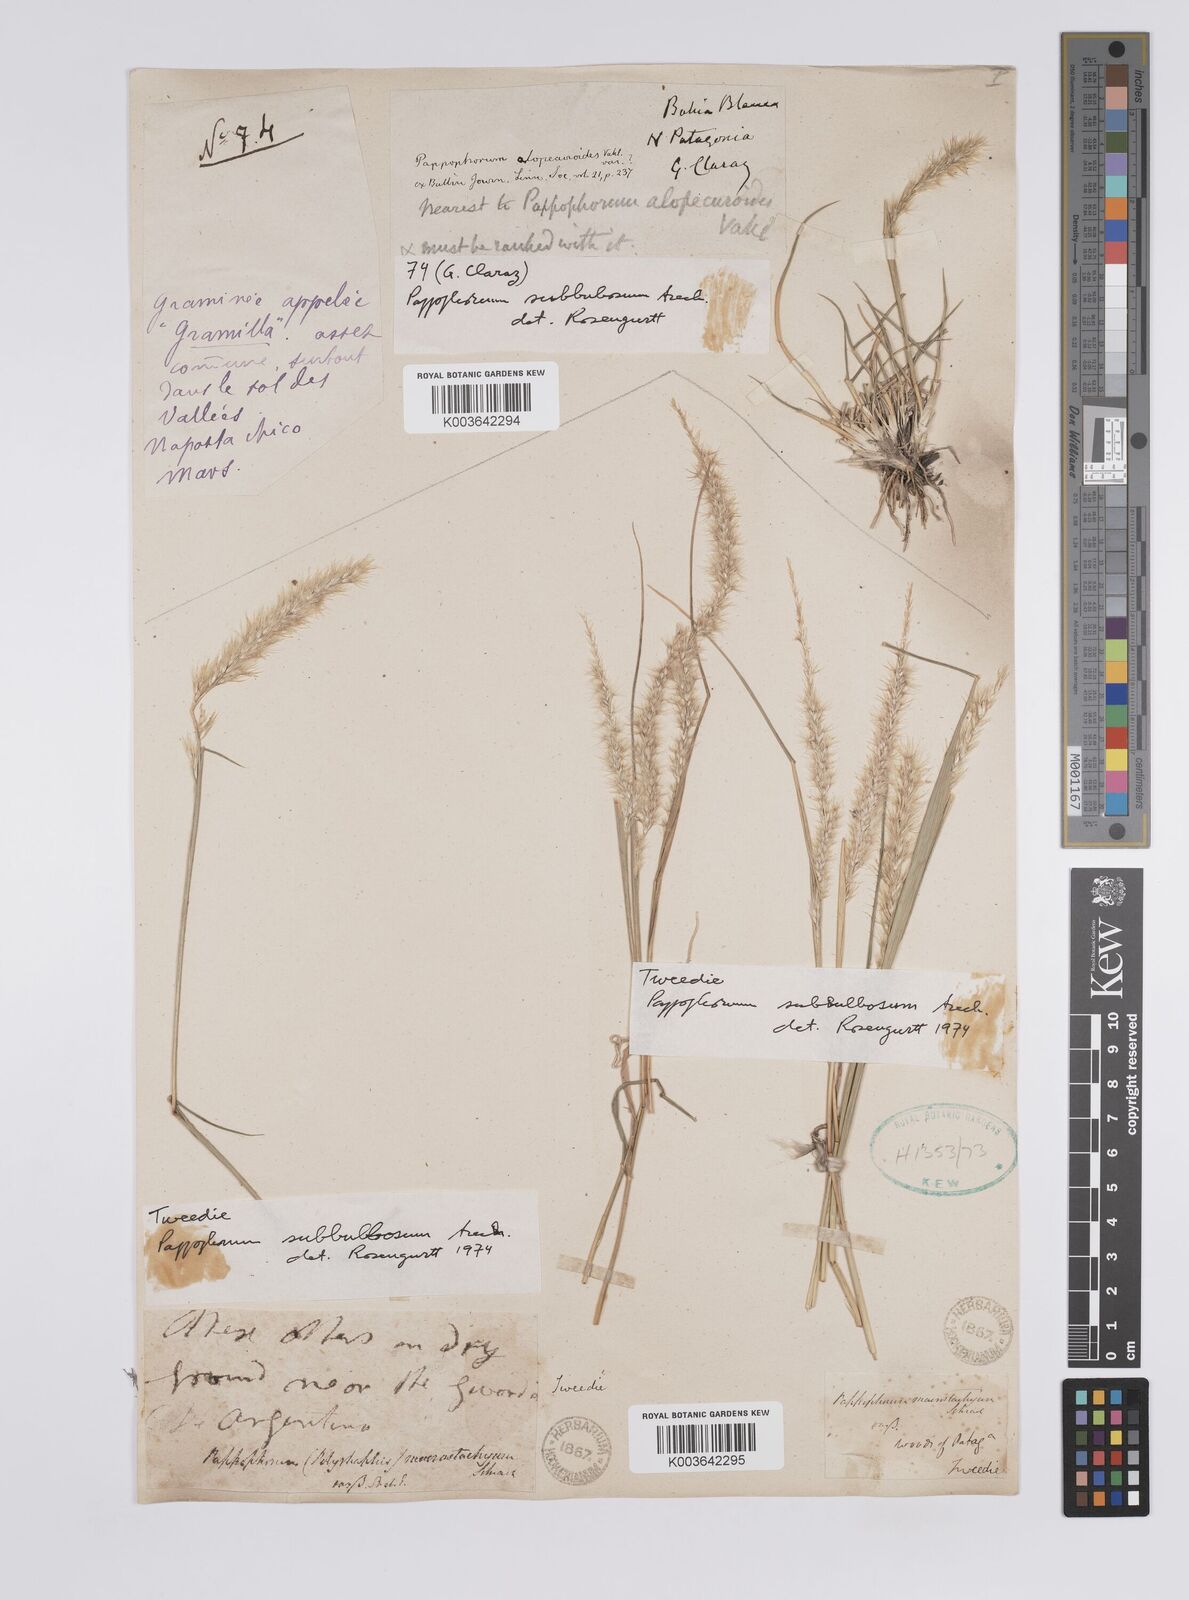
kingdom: Plantae
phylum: Tracheophyta
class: Liliopsida
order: Poales
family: Poaceae
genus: Pappophorum
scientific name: Pappophorum mucronulatum
